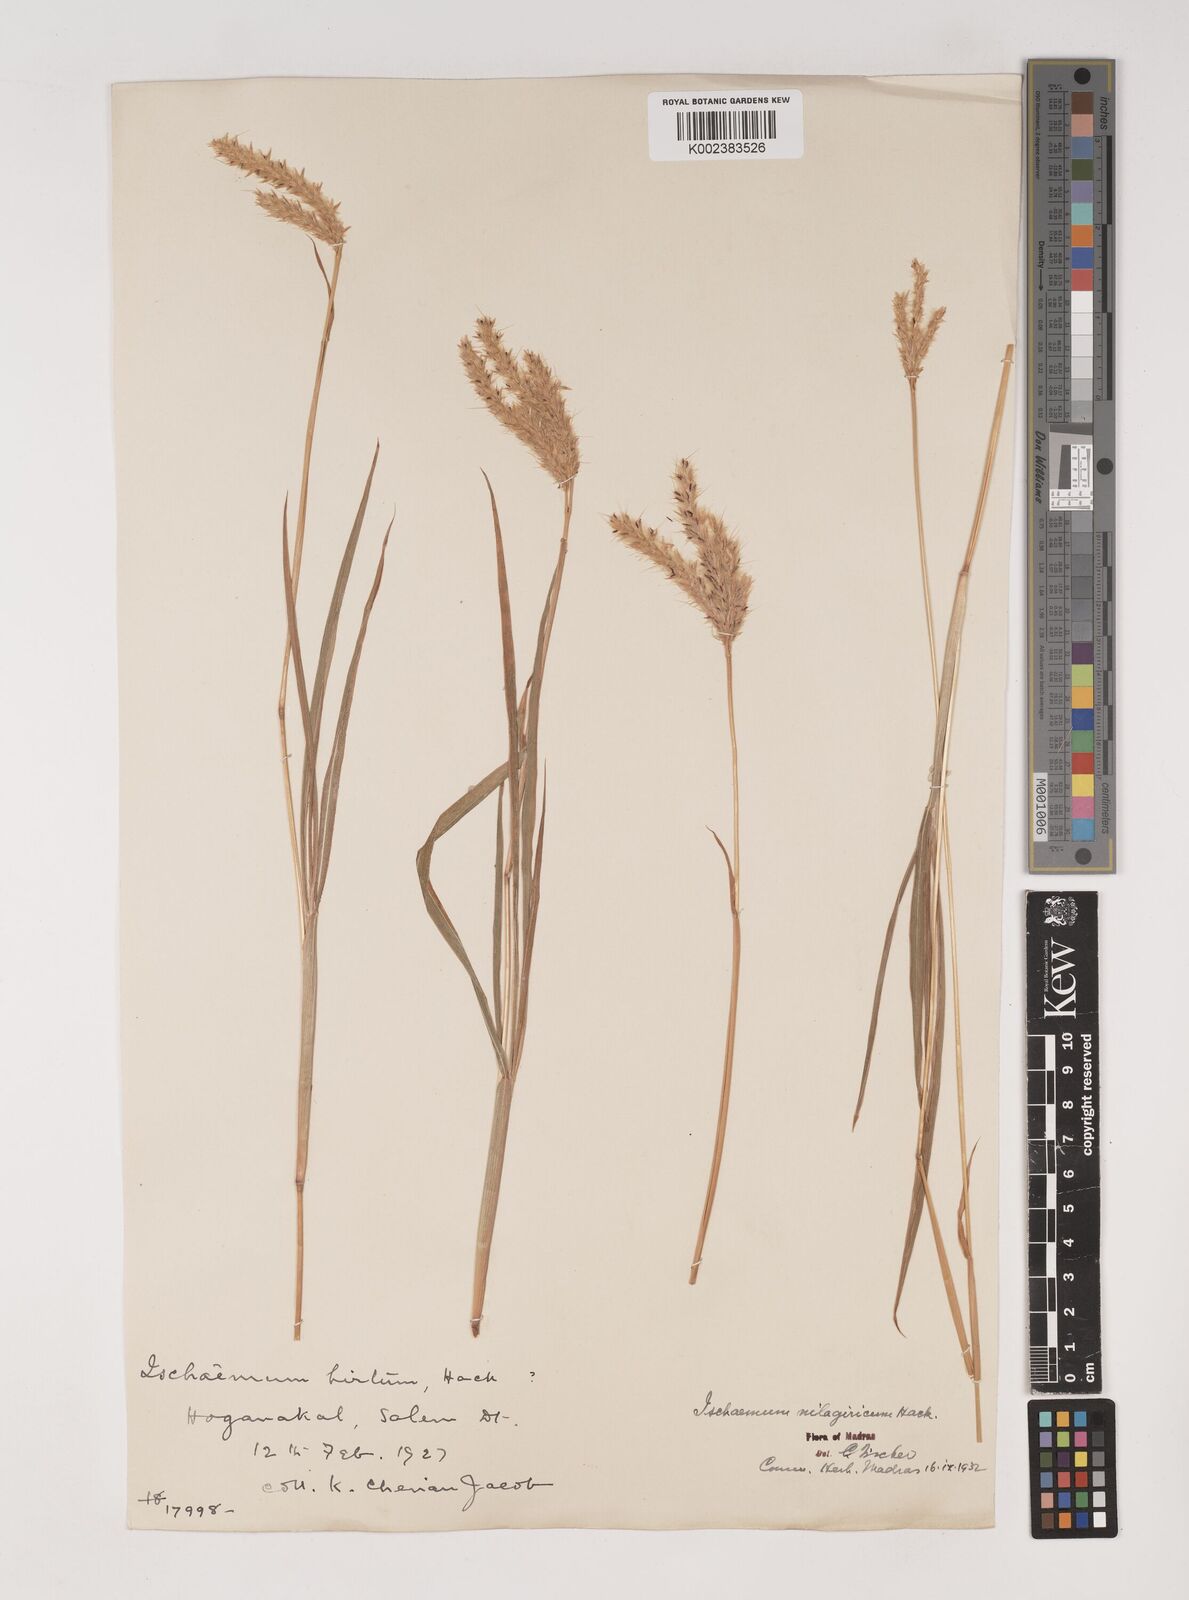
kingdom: Plantae
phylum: Tracheophyta
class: Liliopsida
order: Poales
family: Poaceae
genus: Ischaemum
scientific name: Ischaemum
